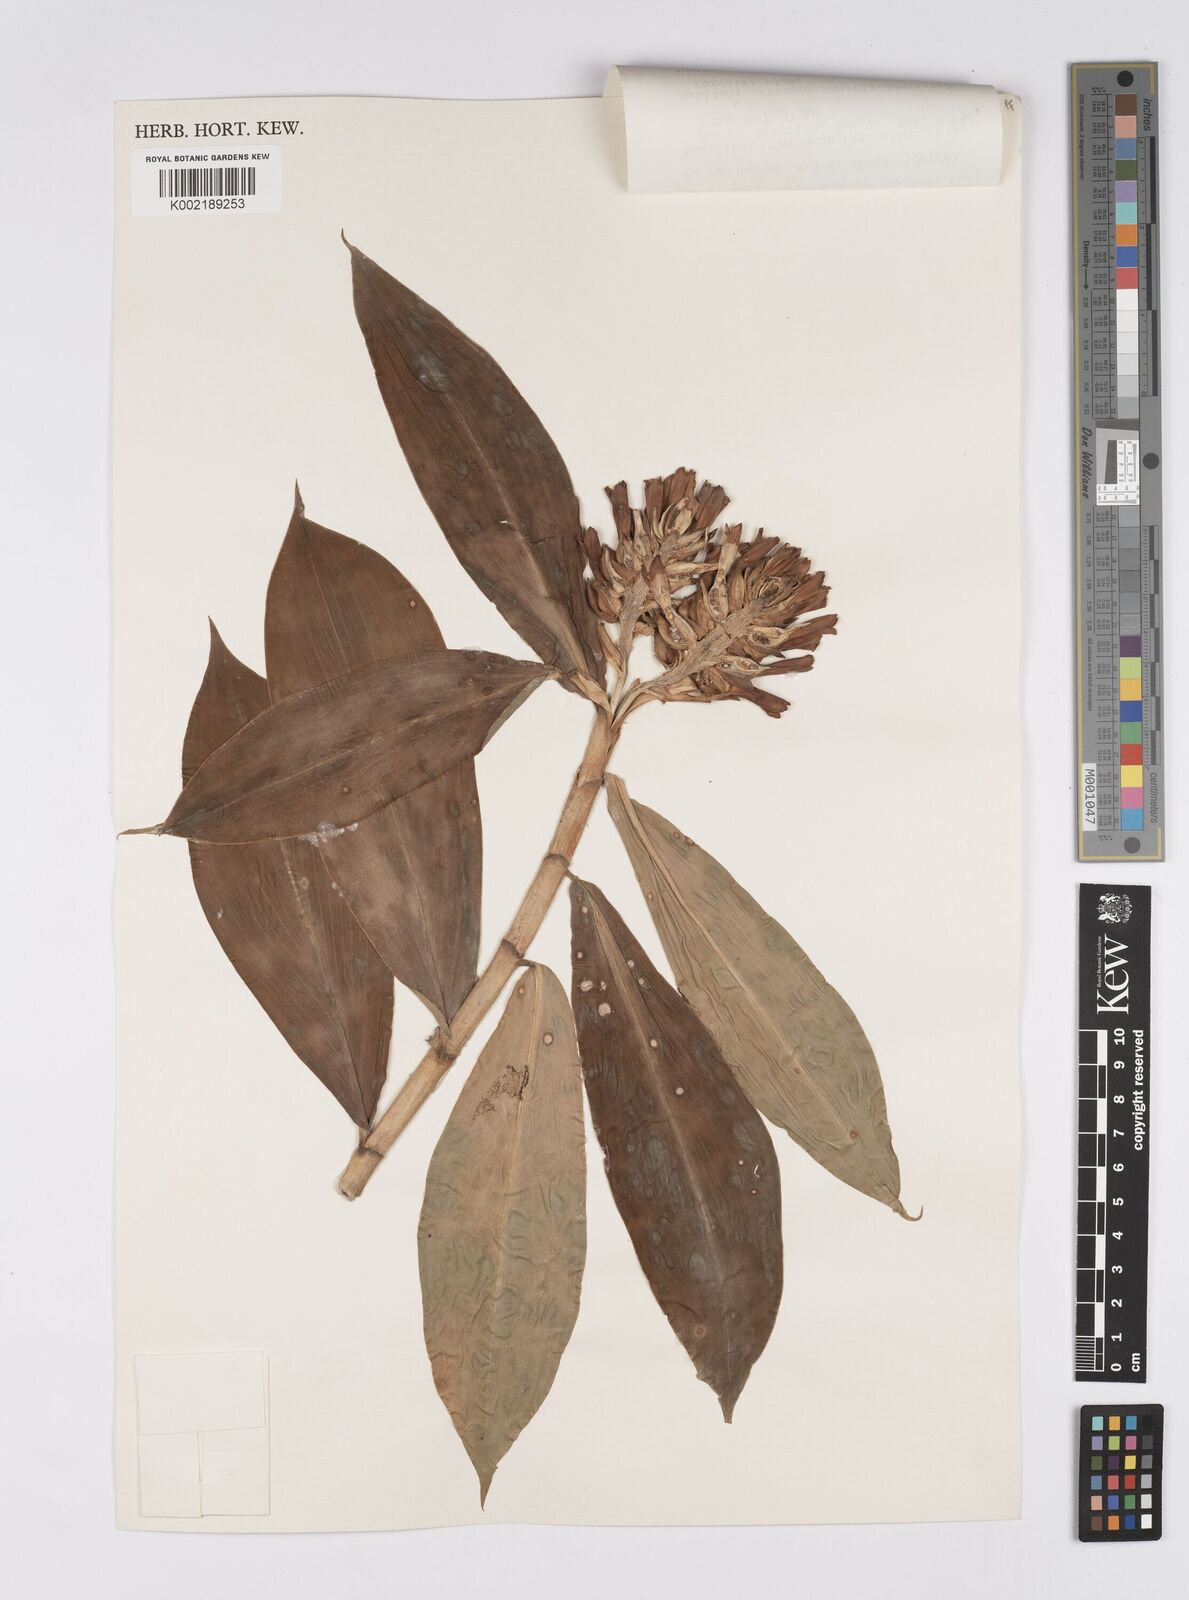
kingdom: Plantae
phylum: Tracheophyta
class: Liliopsida
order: Zingiberales
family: Costaceae
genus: Hellenia
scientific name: Hellenia speciosa
